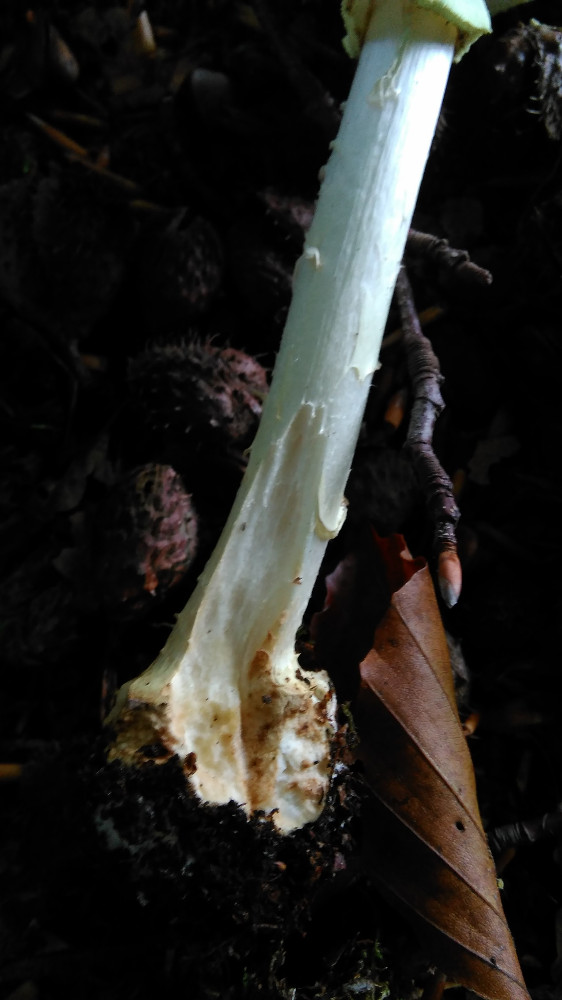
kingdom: Fungi
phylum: Basidiomycota
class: Agaricomycetes
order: Agaricales
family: Amanitaceae
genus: Amanita
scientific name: Amanita citrina
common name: kugleknoldet fluesvamp
